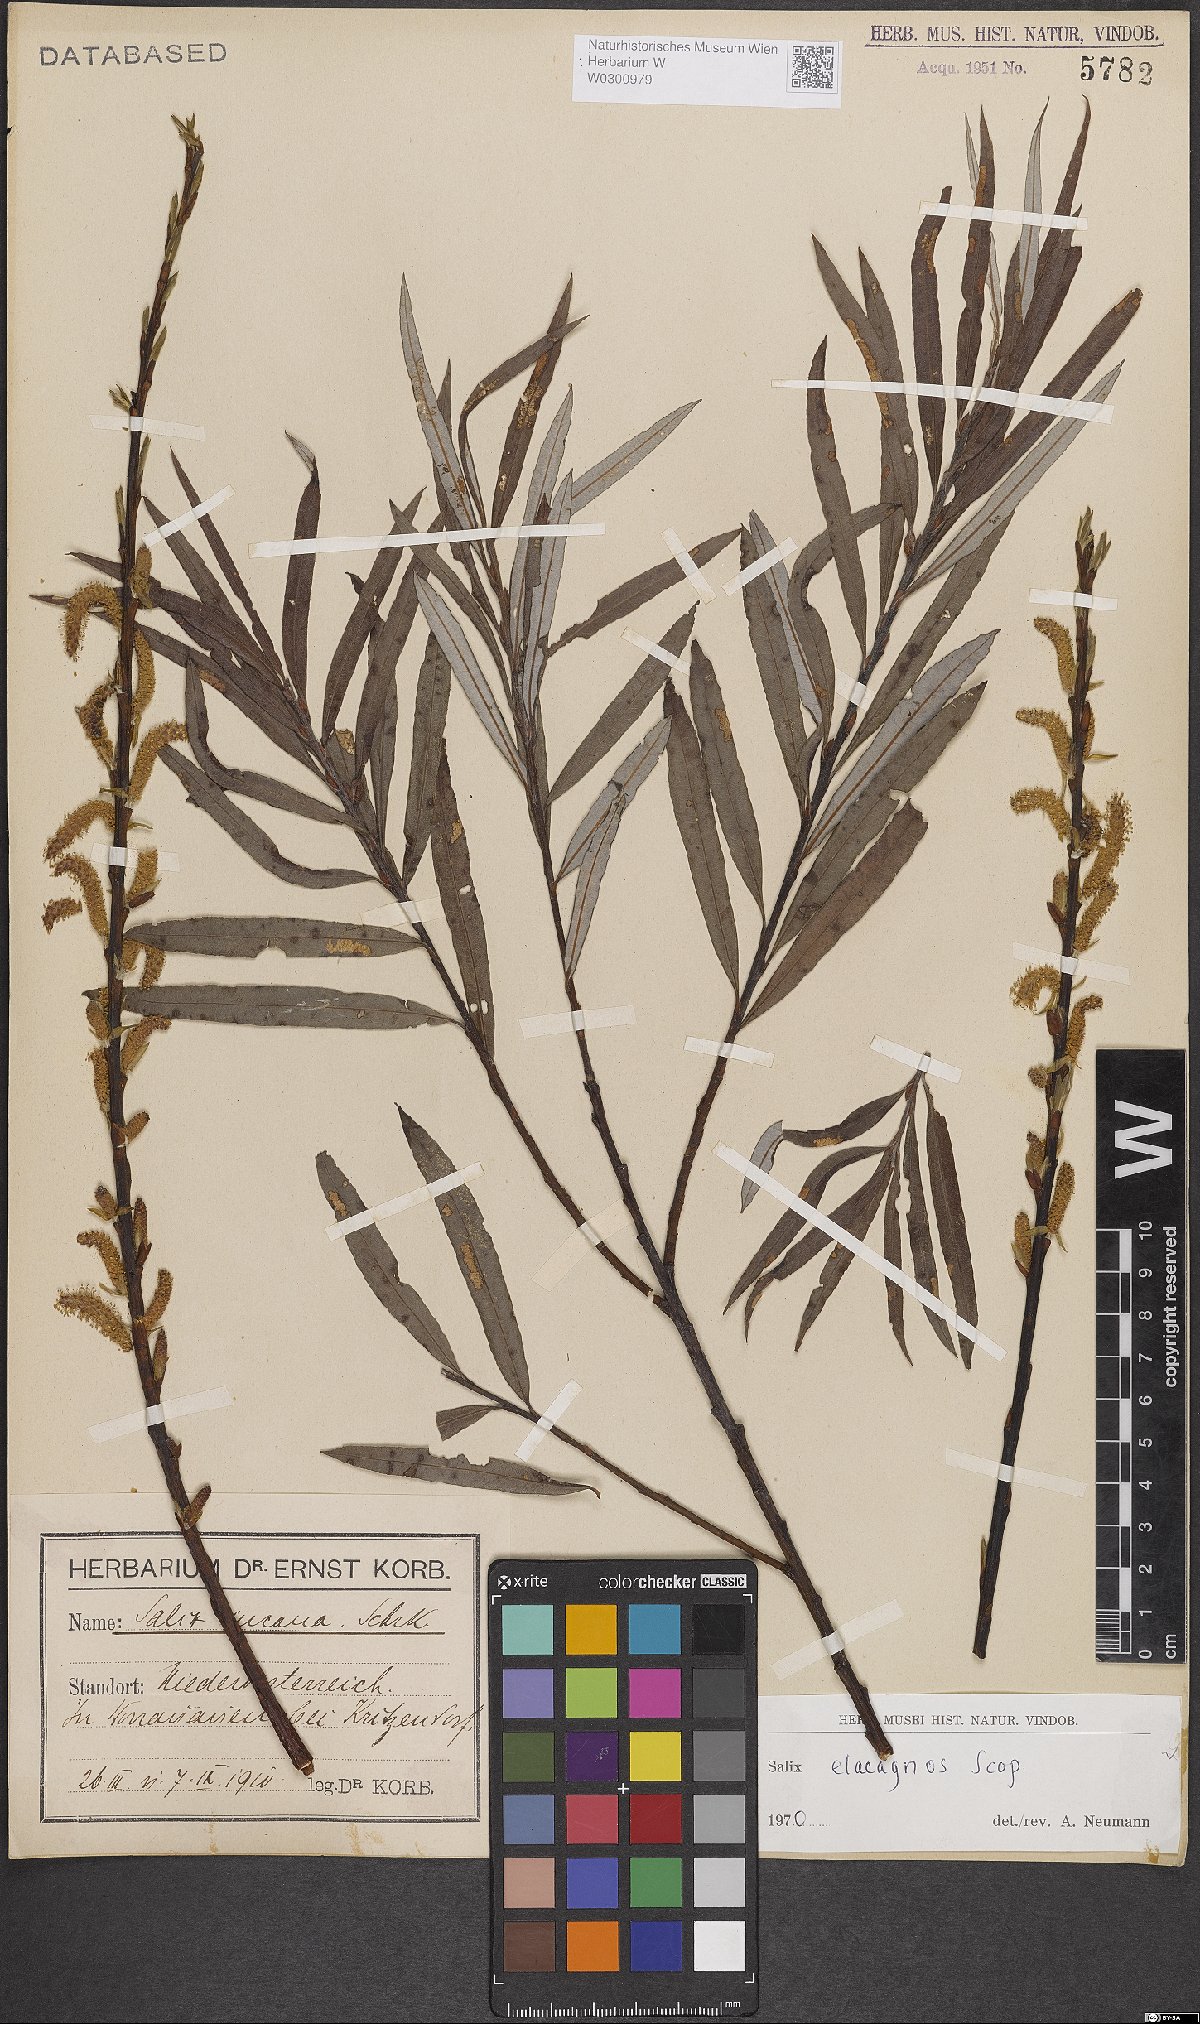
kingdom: Plantae
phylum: Tracheophyta
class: Magnoliopsida
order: Malpighiales
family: Salicaceae
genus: Salix
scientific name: Salix eleagnos
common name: Elaeagnus willow
